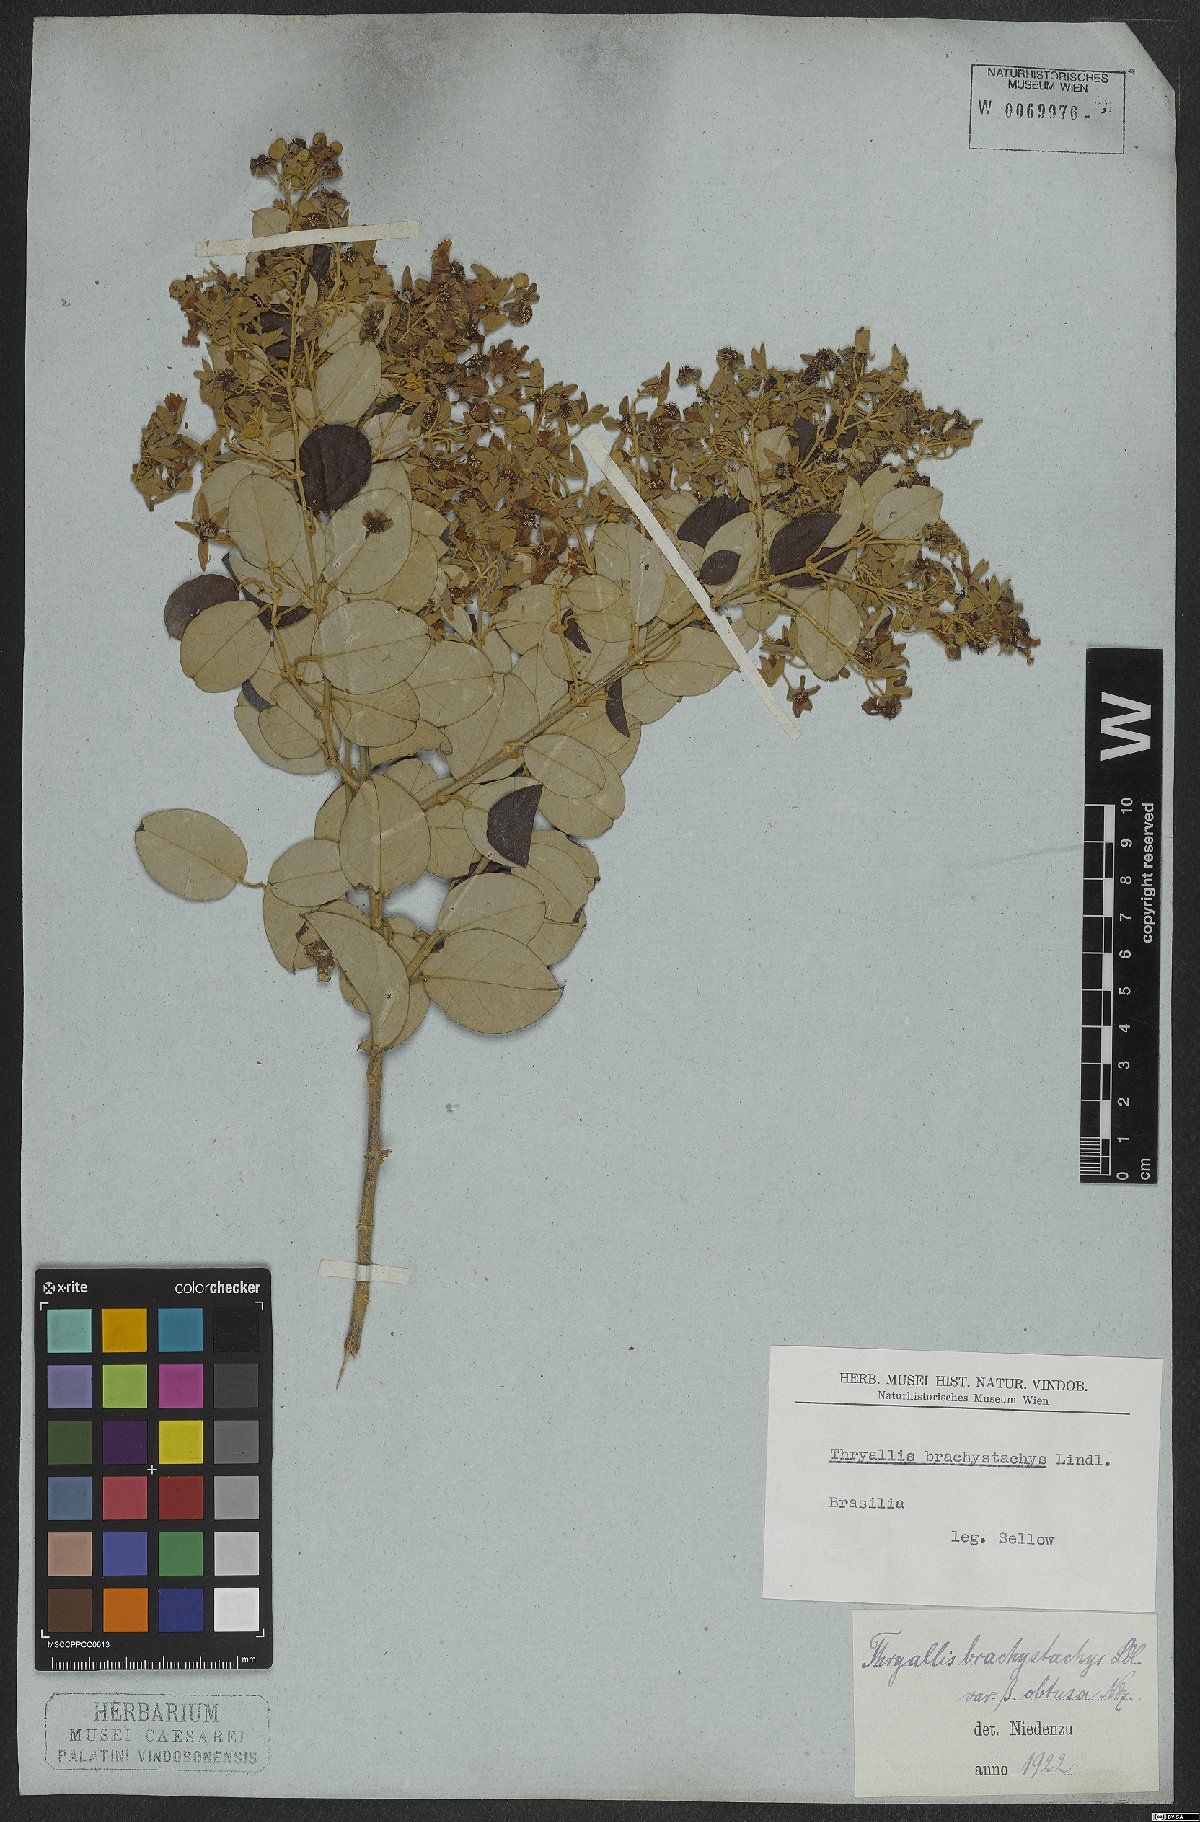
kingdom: Plantae
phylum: Tracheophyta
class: Magnoliopsida
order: Malpighiales
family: Malpighiaceae
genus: Thryallis
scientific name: Thryallis laburnum
